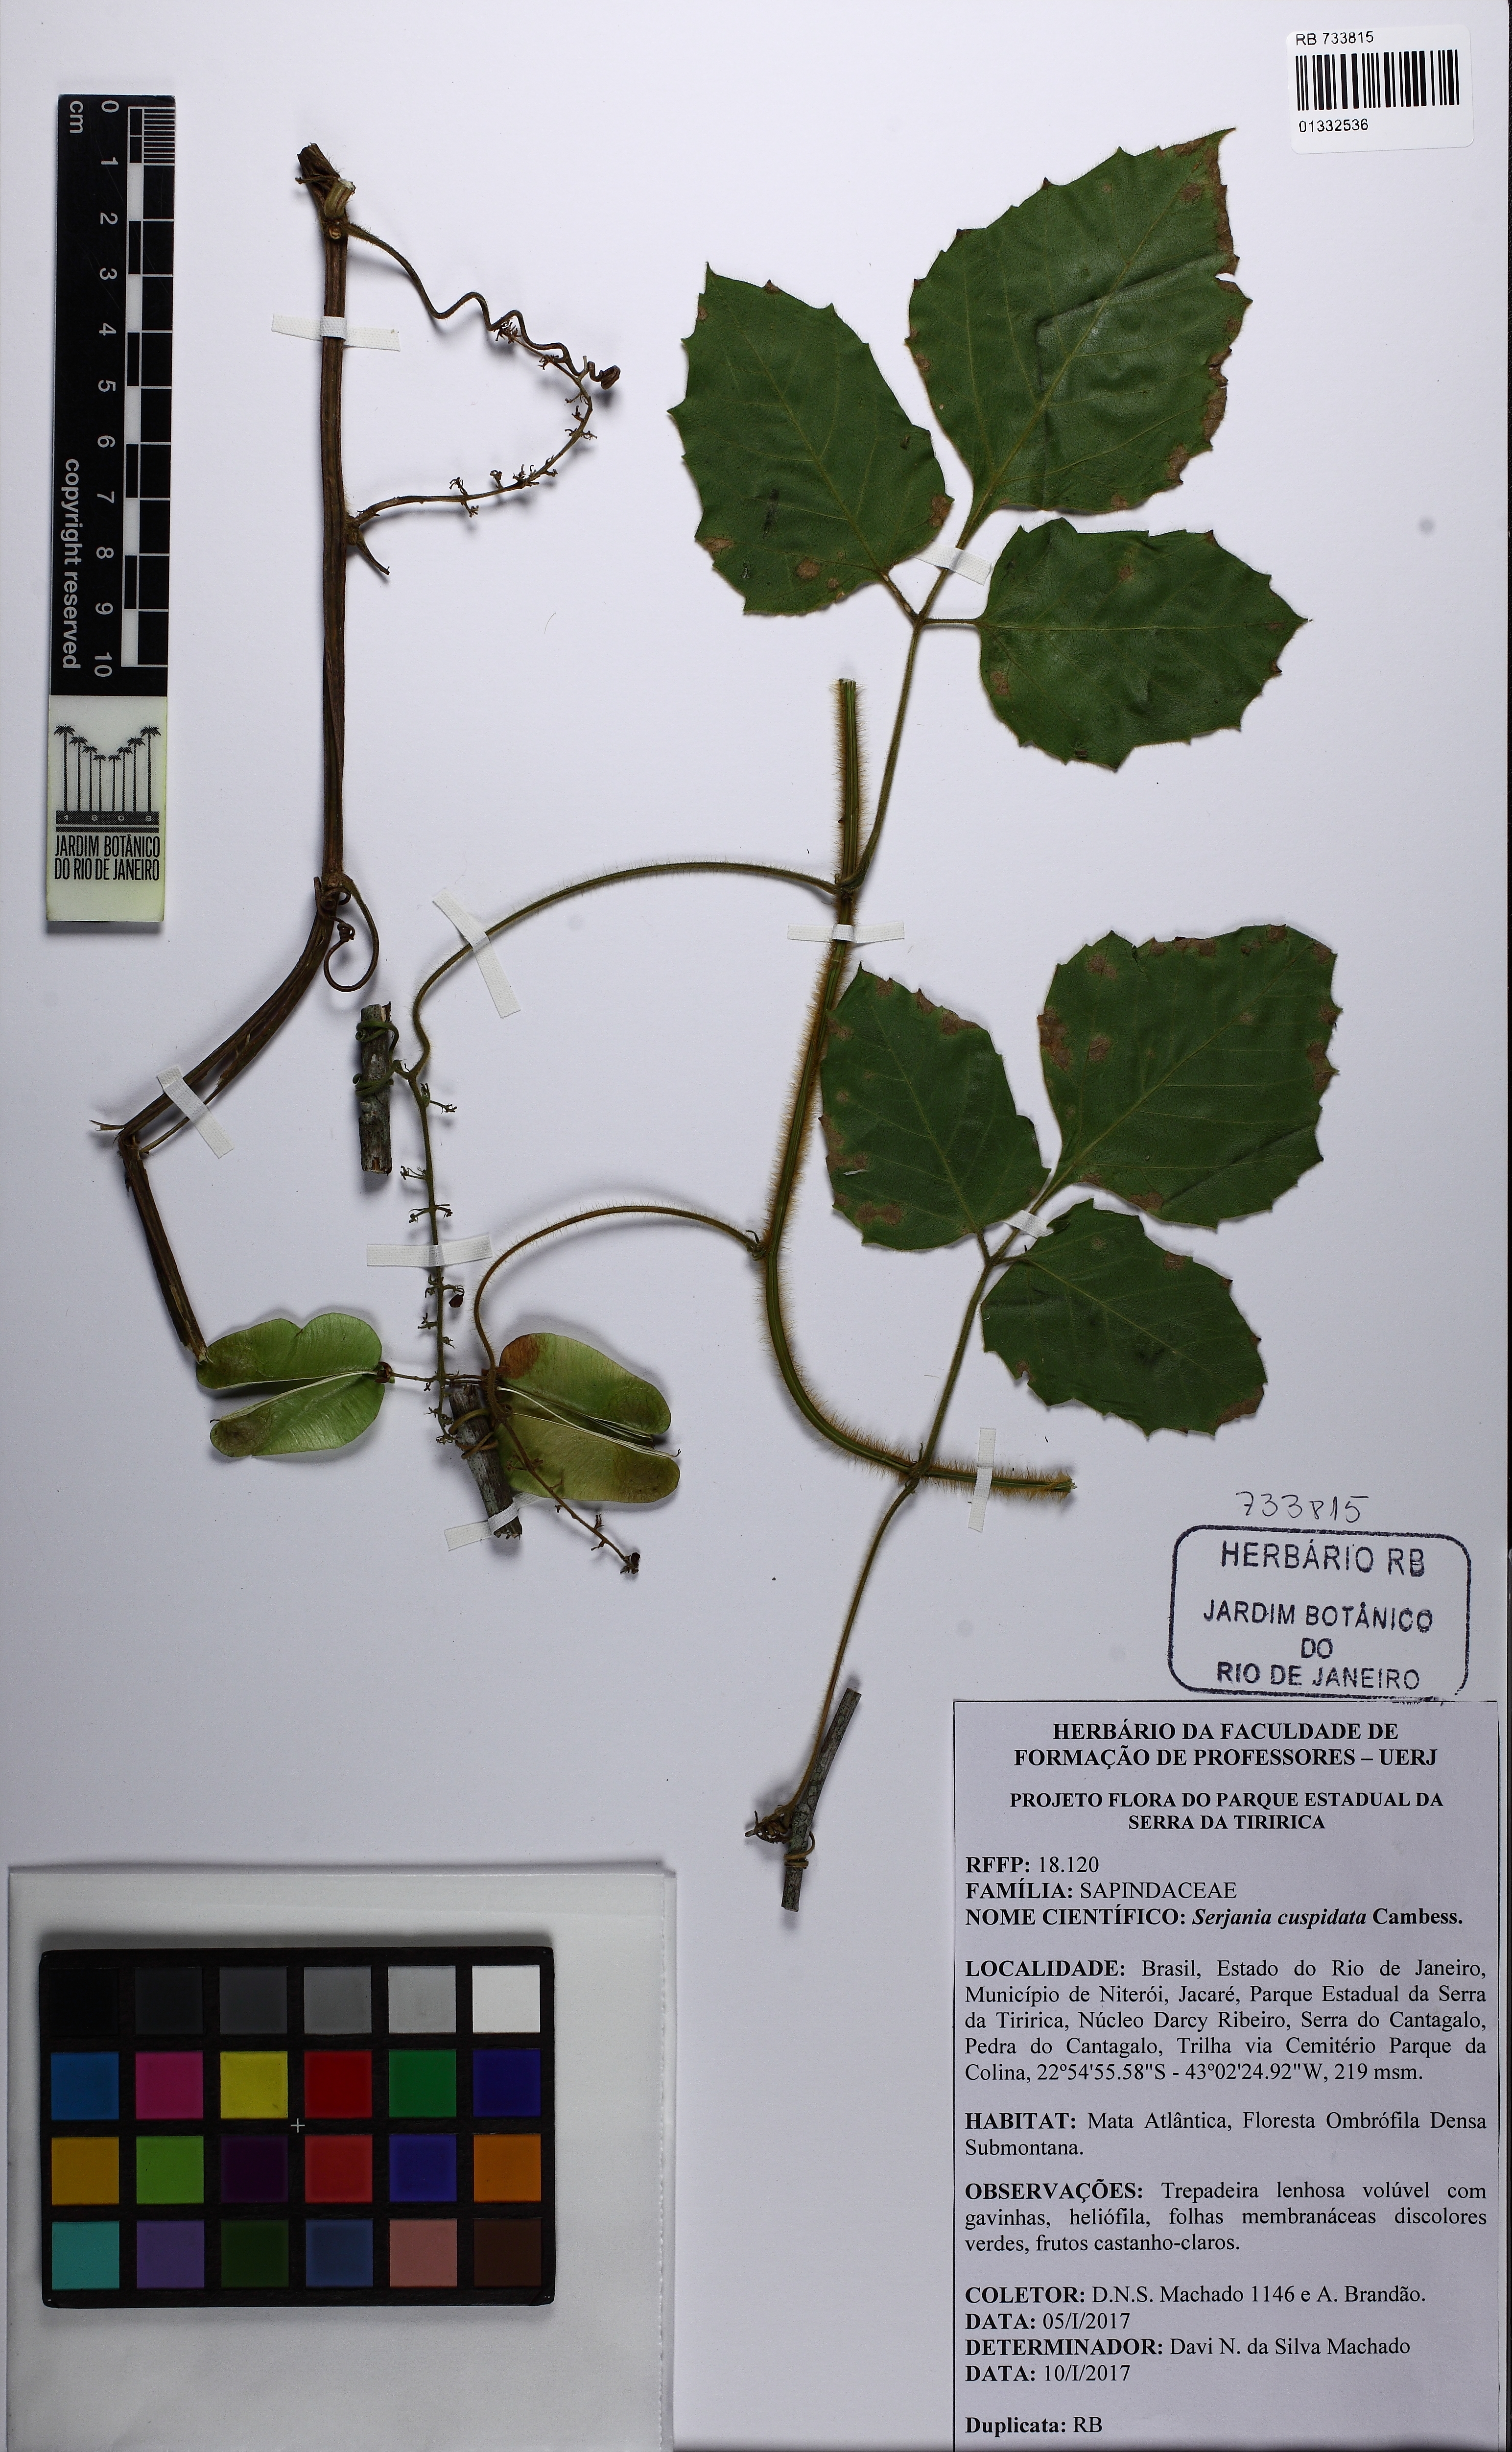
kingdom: Plantae
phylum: Tracheophyta
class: Magnoliopsida
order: Sapindales
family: Sapindaceae
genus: Serjania
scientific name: Serjania ferruginea
